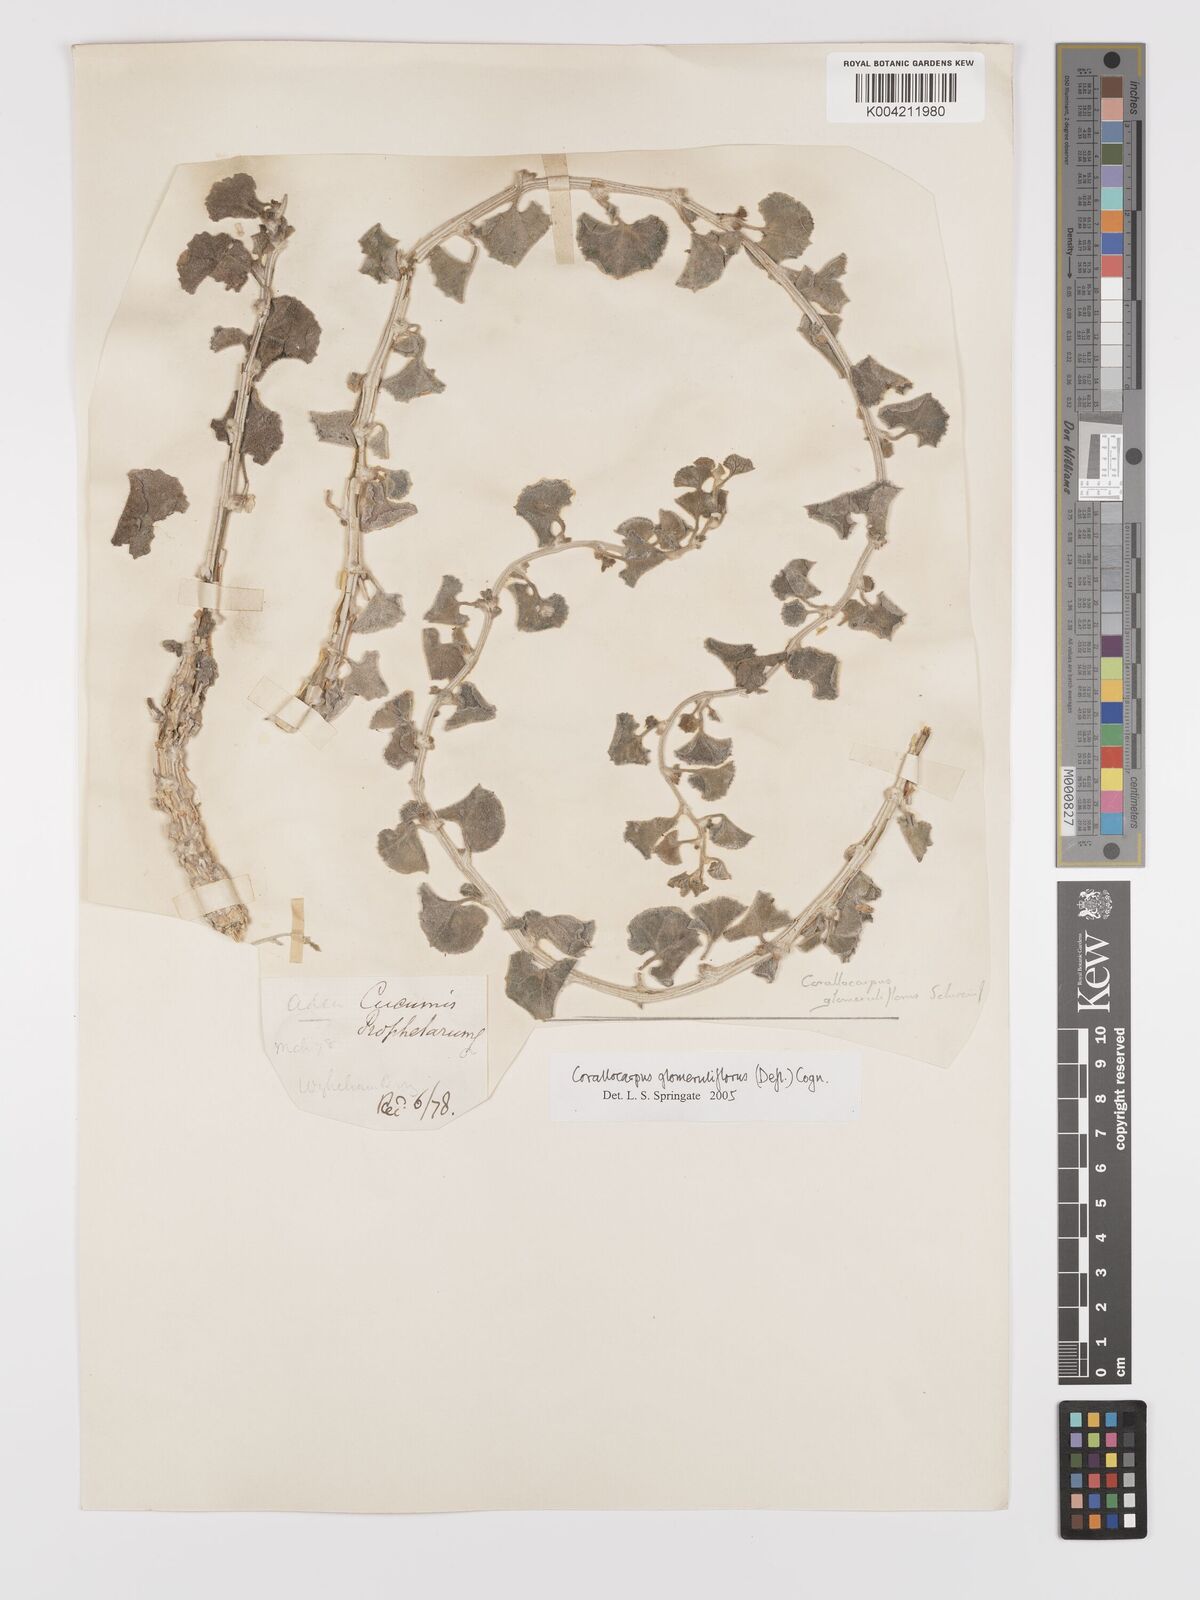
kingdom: Plantae
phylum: Tracheophyta
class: Magnoliopsida
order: Cucurbitales
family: Cucurbitaceae
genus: Corallocarpus
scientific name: Corallocarpus glomeruliflorus
